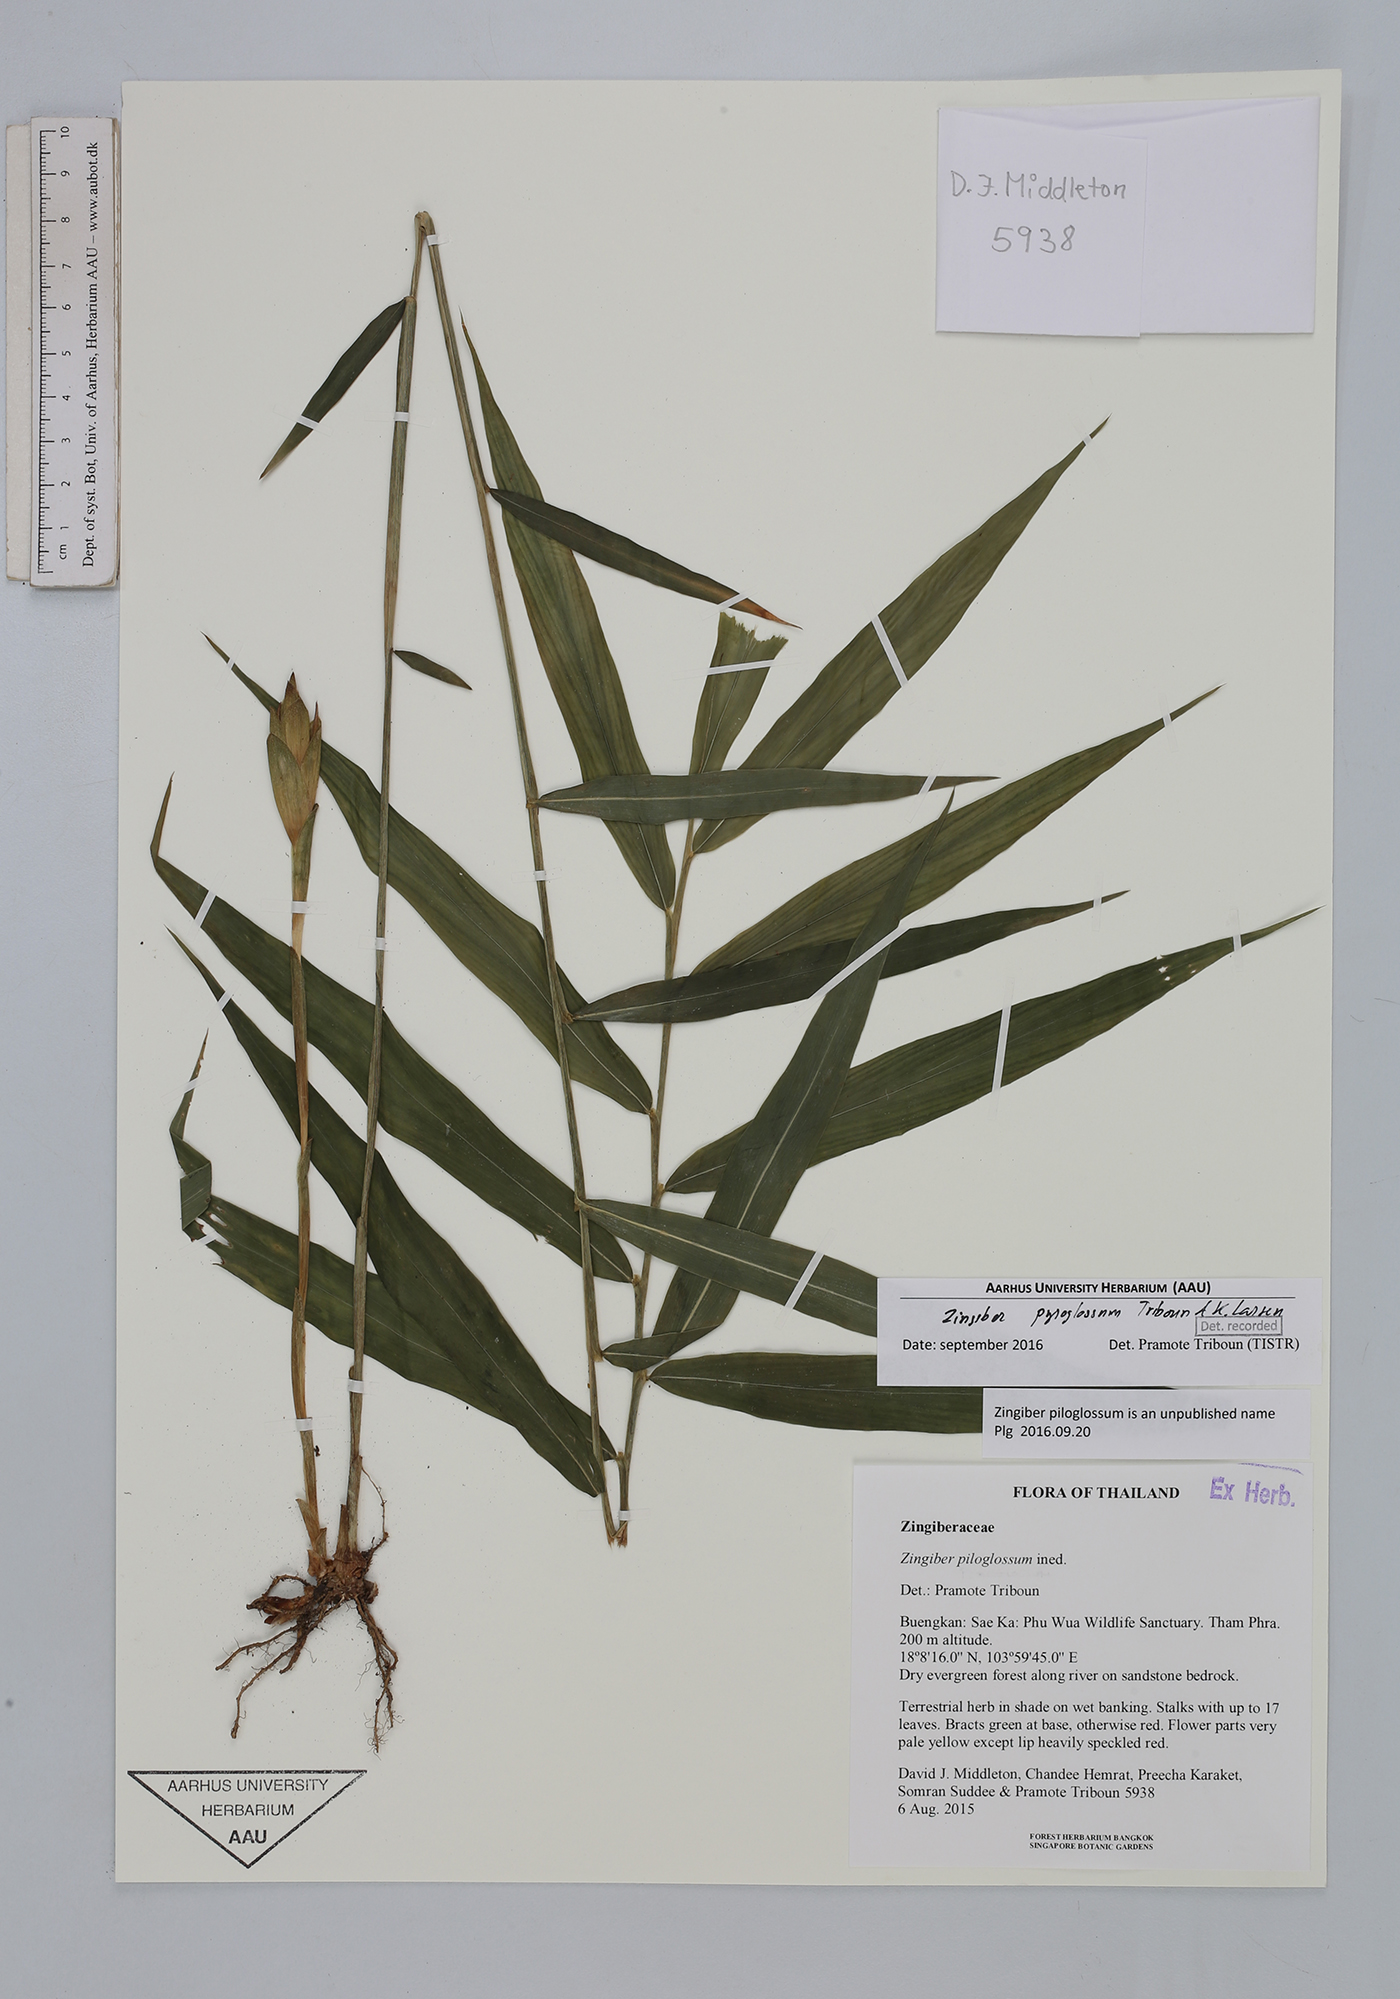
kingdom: Plantae
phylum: Tracheophyta
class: Liliopsida
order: Zingiberales
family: Zingiberaceae
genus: Zingiber
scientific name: Zingiber pyroglossum
